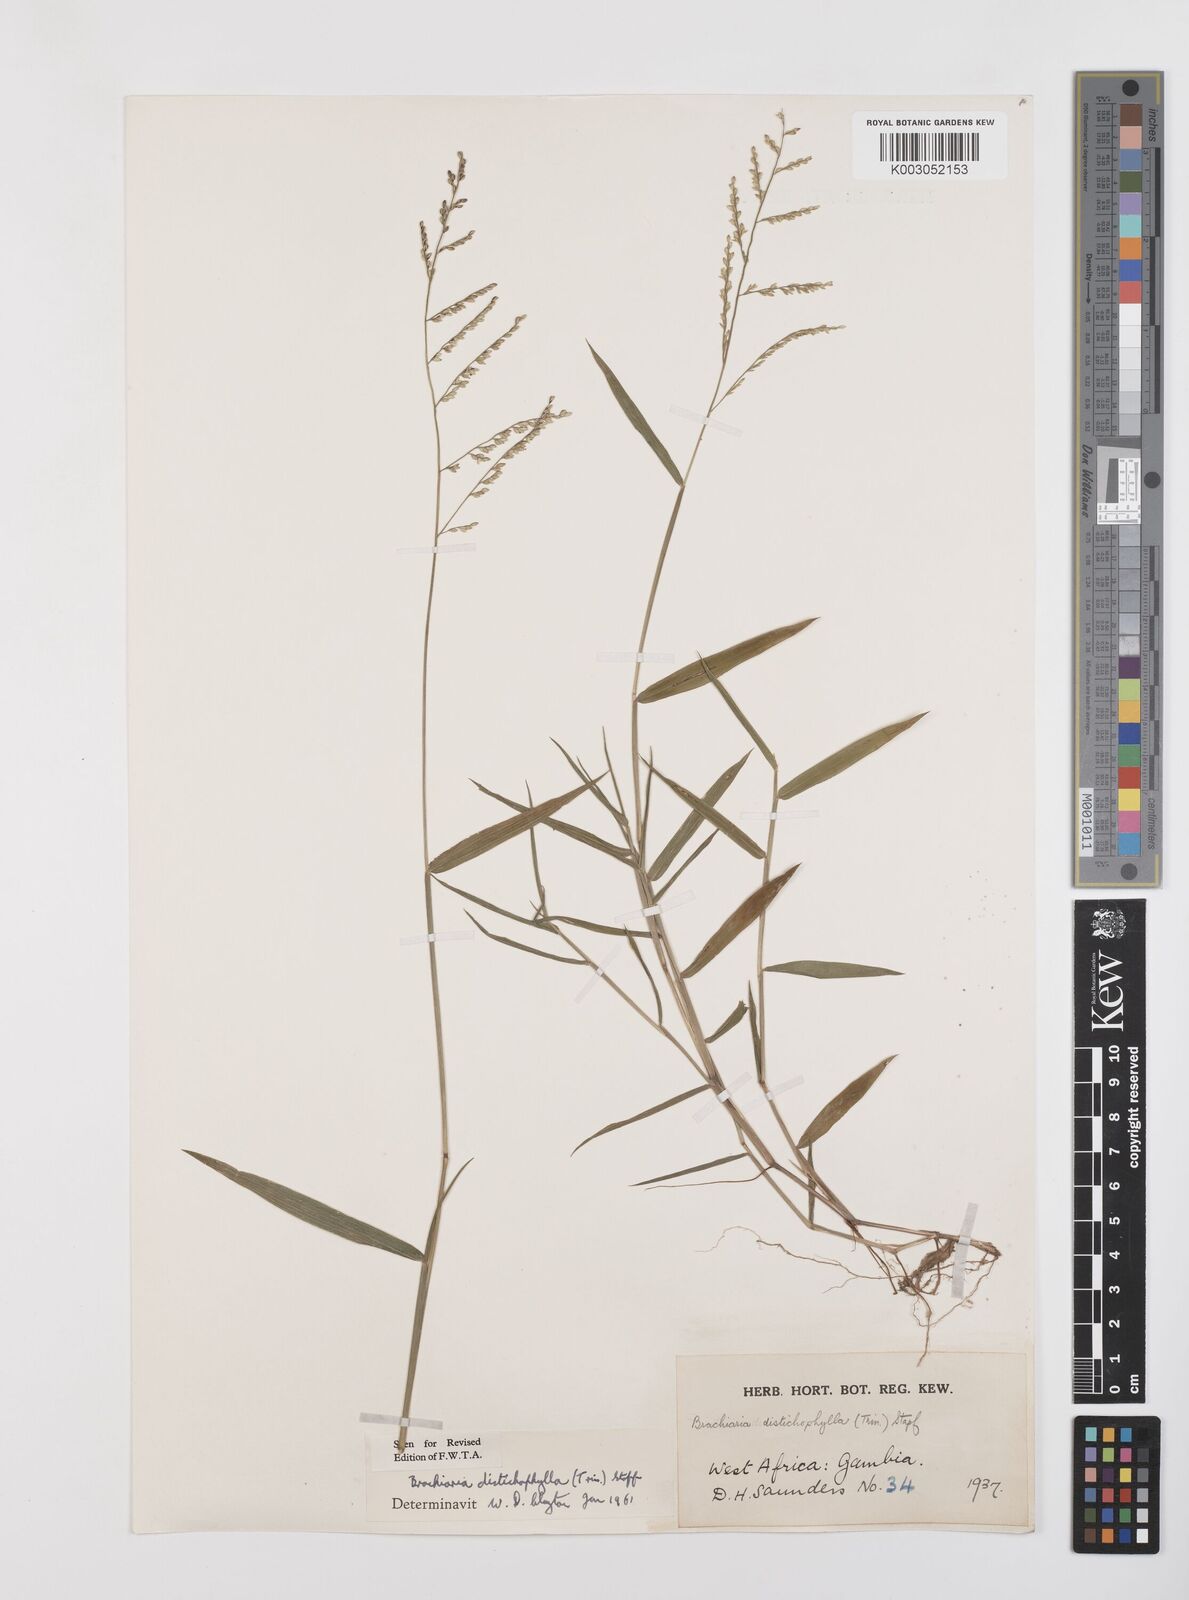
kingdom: Plantae
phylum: Tracheophyta
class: Liliopsida
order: Poales
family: Poaceae
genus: Urochloa
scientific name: Urochloa villosa
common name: Hairy signalgrass
